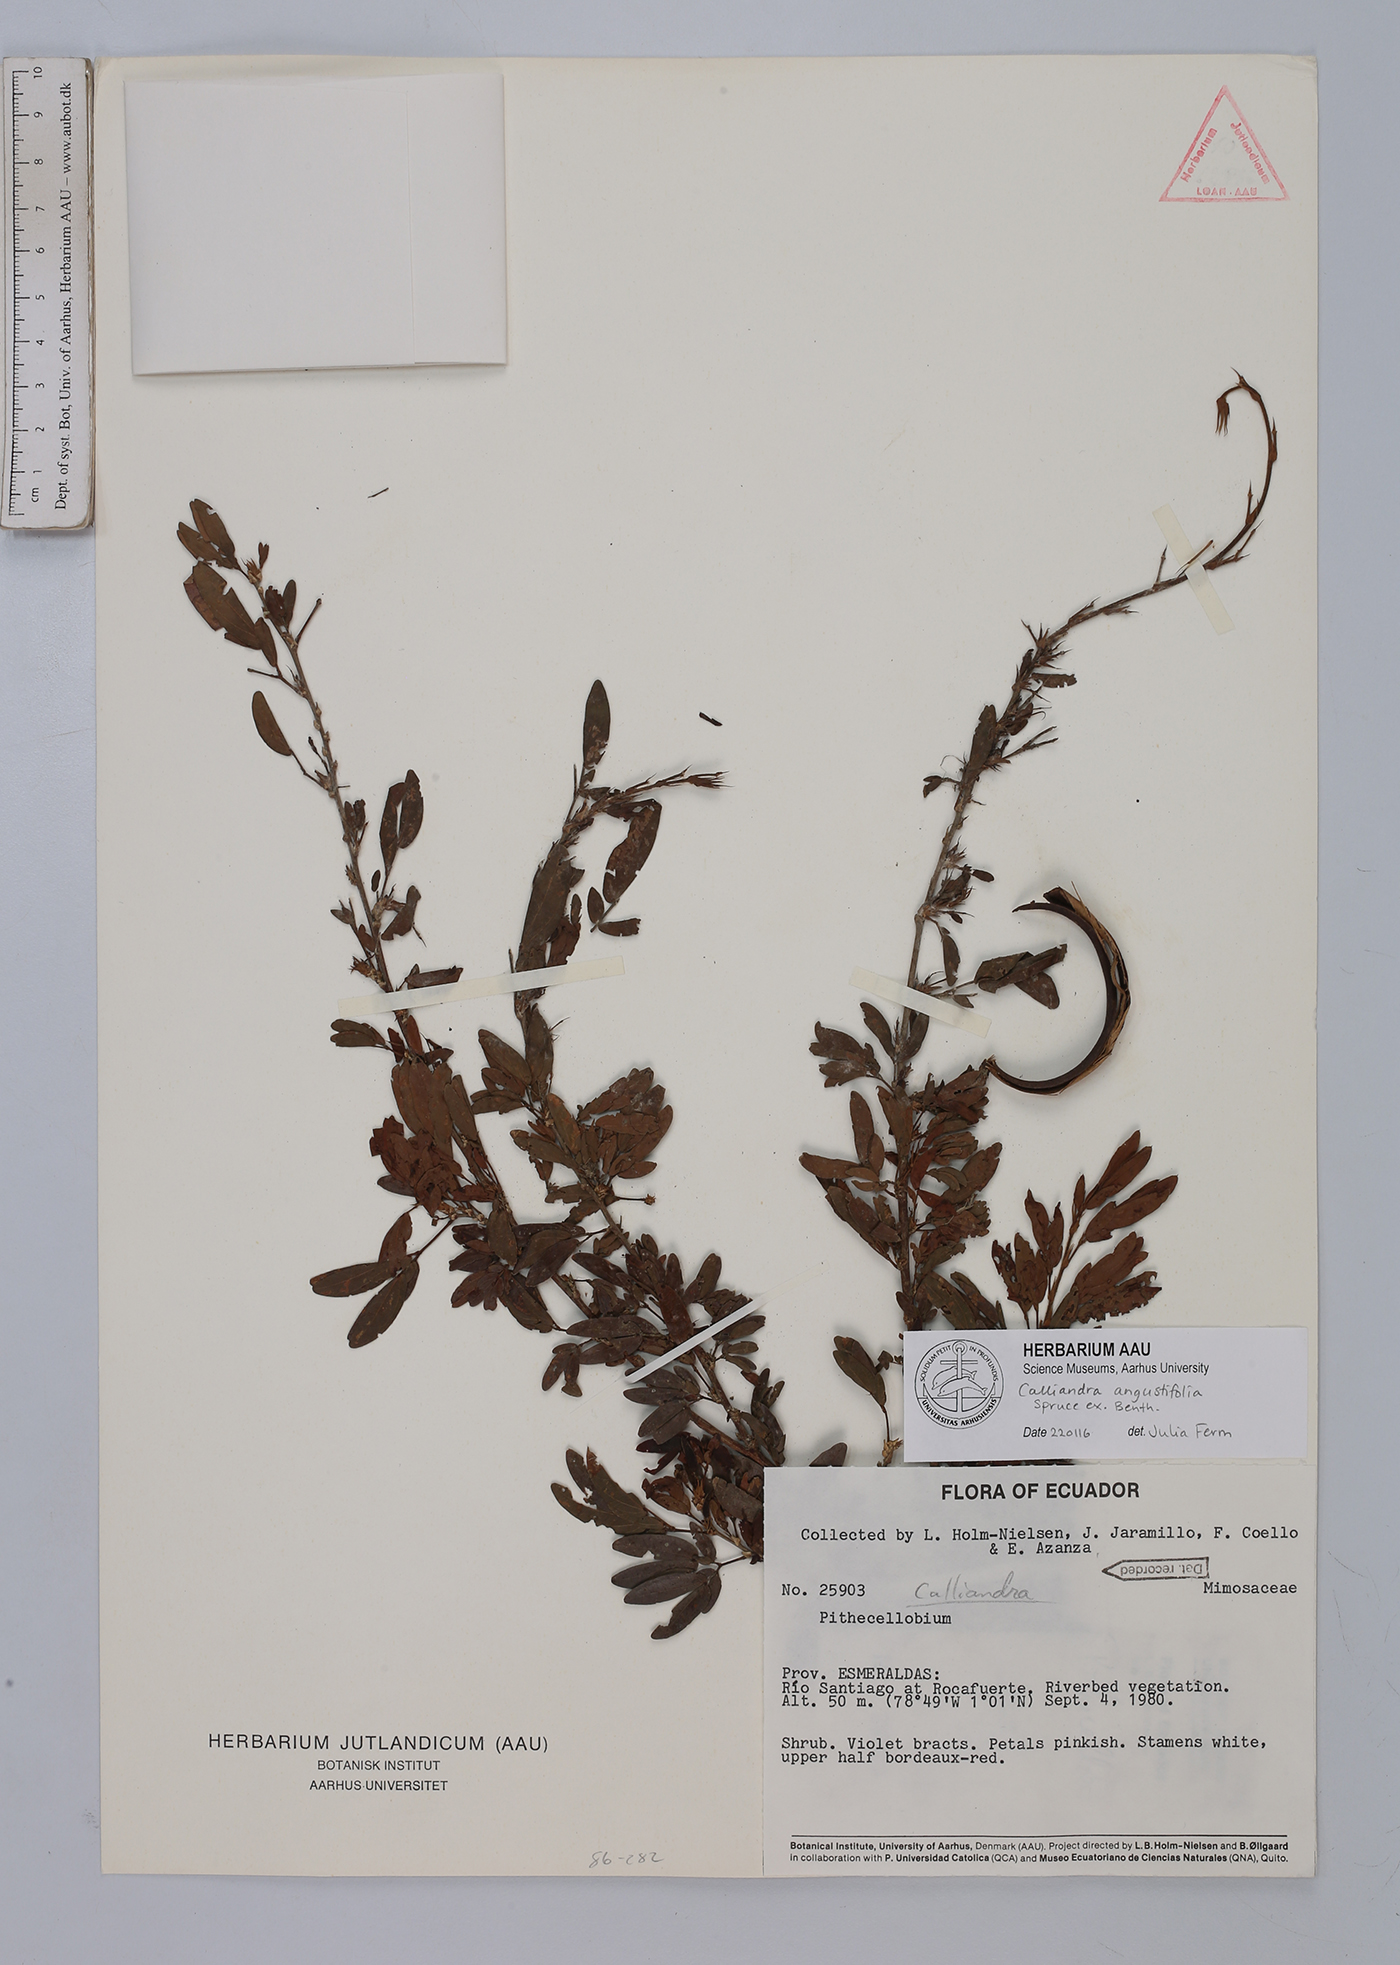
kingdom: Plantae
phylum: Tracheophyta
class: Magnoliopsida
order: Fabales
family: Fabaceae
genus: Calliandra
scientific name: Calliandra angustifolia
